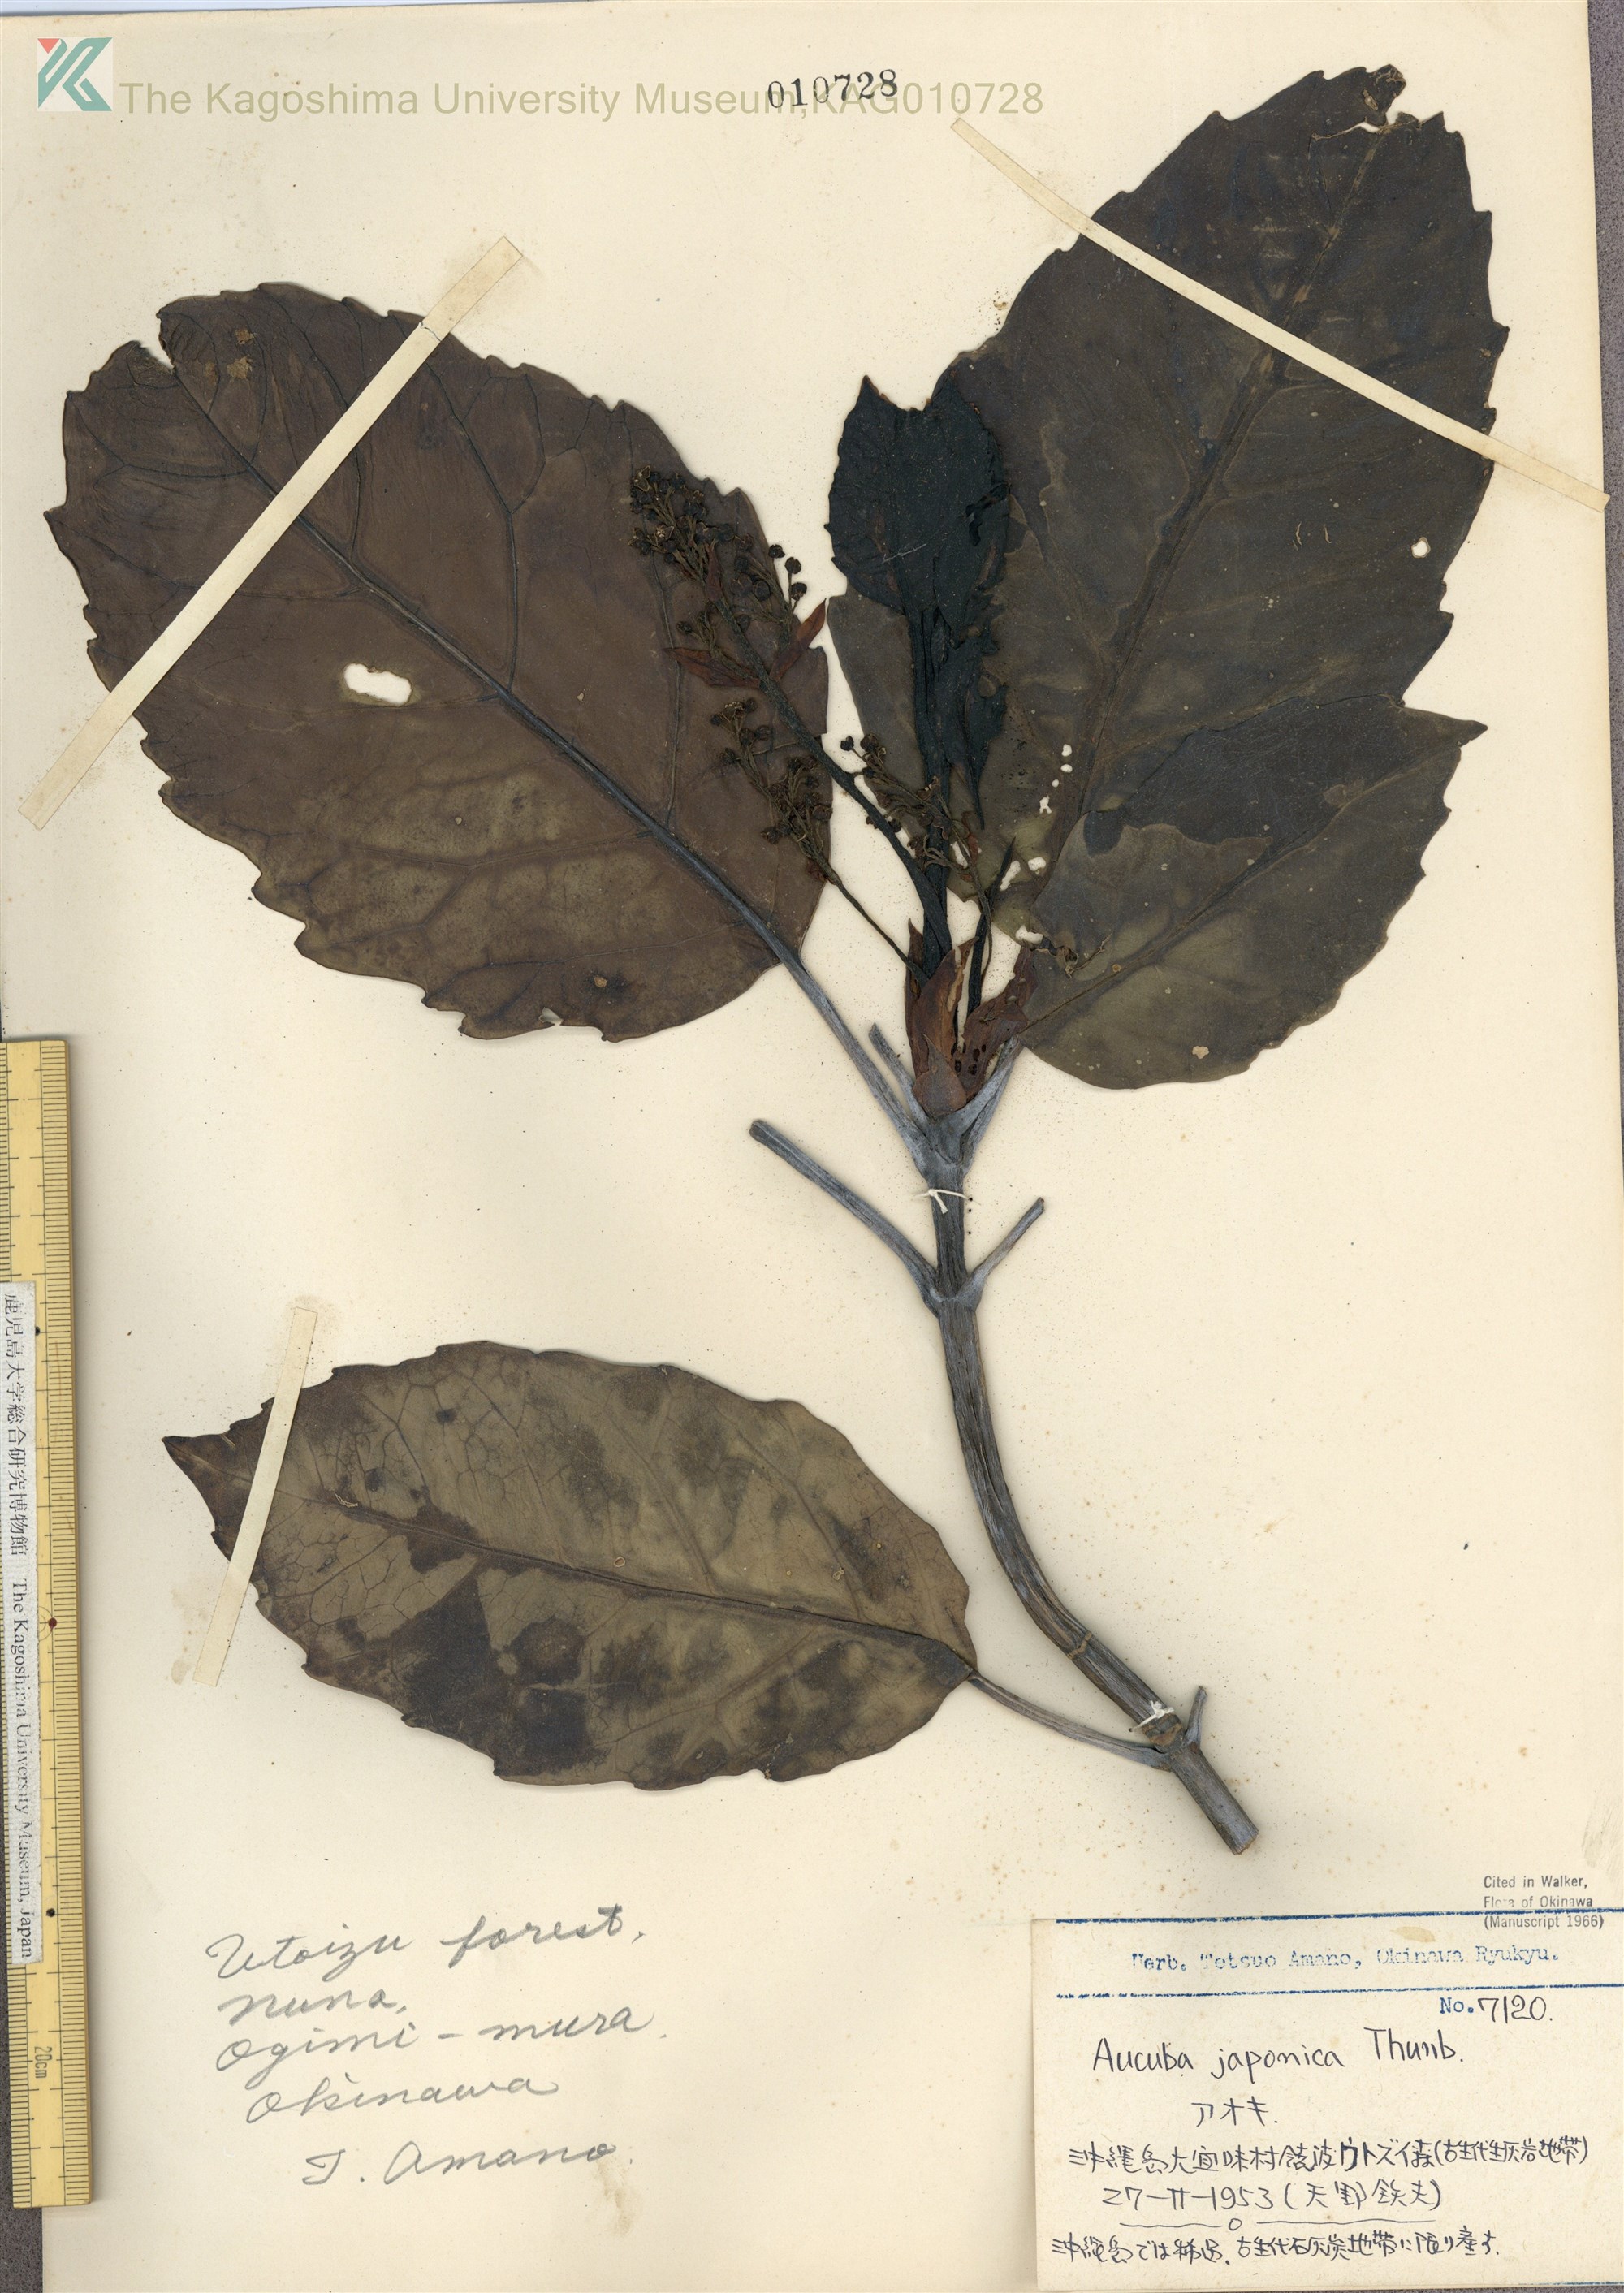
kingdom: Plantae
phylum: Tracheophyta
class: Magnoliopsida
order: Garryales
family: Garryaceae
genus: Aucuba
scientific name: Aucuba japonica
